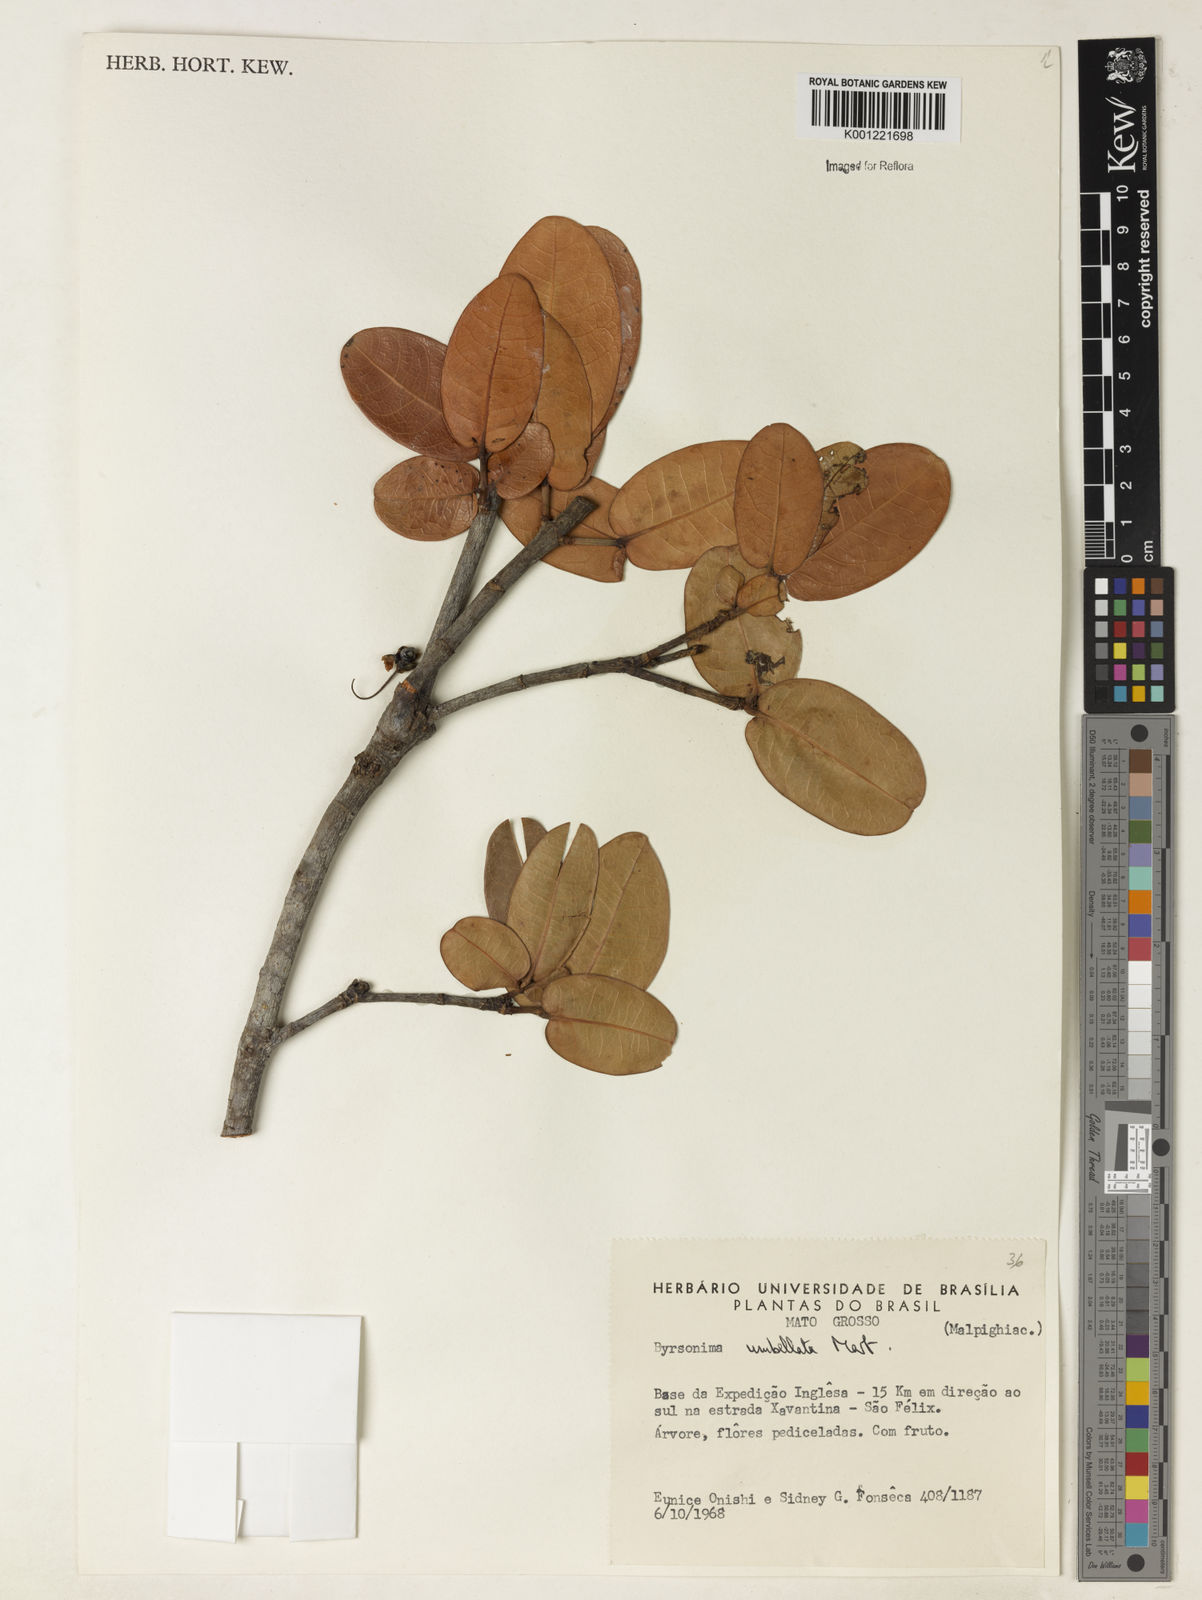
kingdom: Plantae
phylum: Tracheophyta
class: Magnoliopsida
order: Malpighiales
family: Malpighiaceae
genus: Byrsonima
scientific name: Byrsonima umbellata
